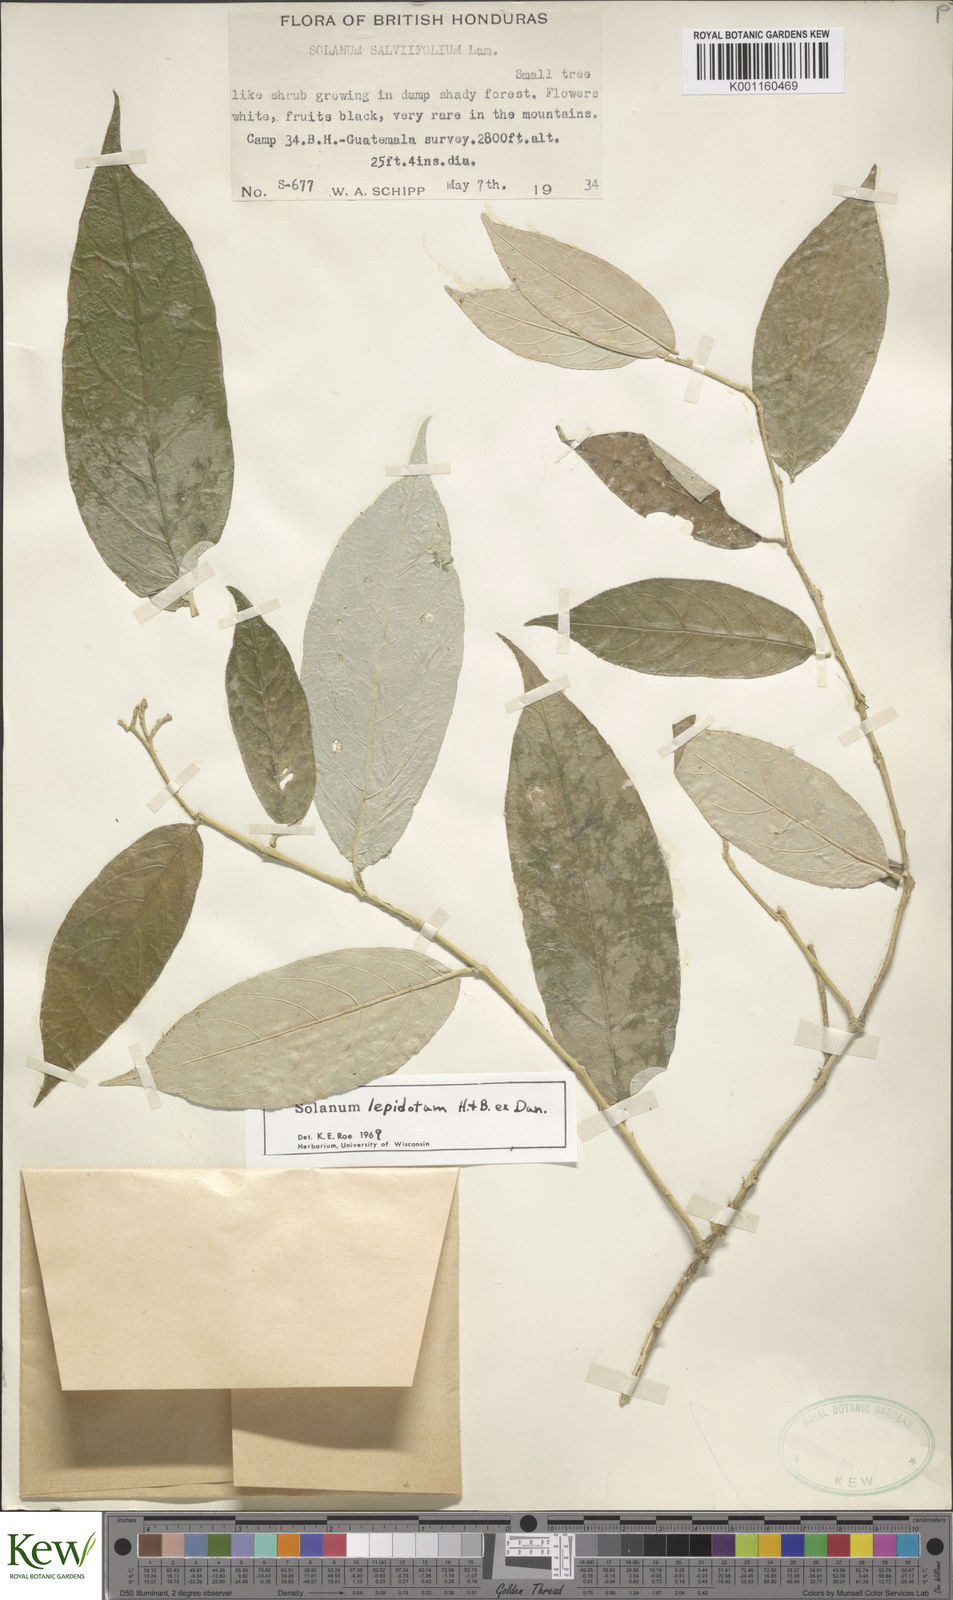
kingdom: Plantae
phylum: Tracheophyta
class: Magnoliopsida
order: Solanales
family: Solanaceae
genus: Solanum
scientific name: Solanum lepidotum
